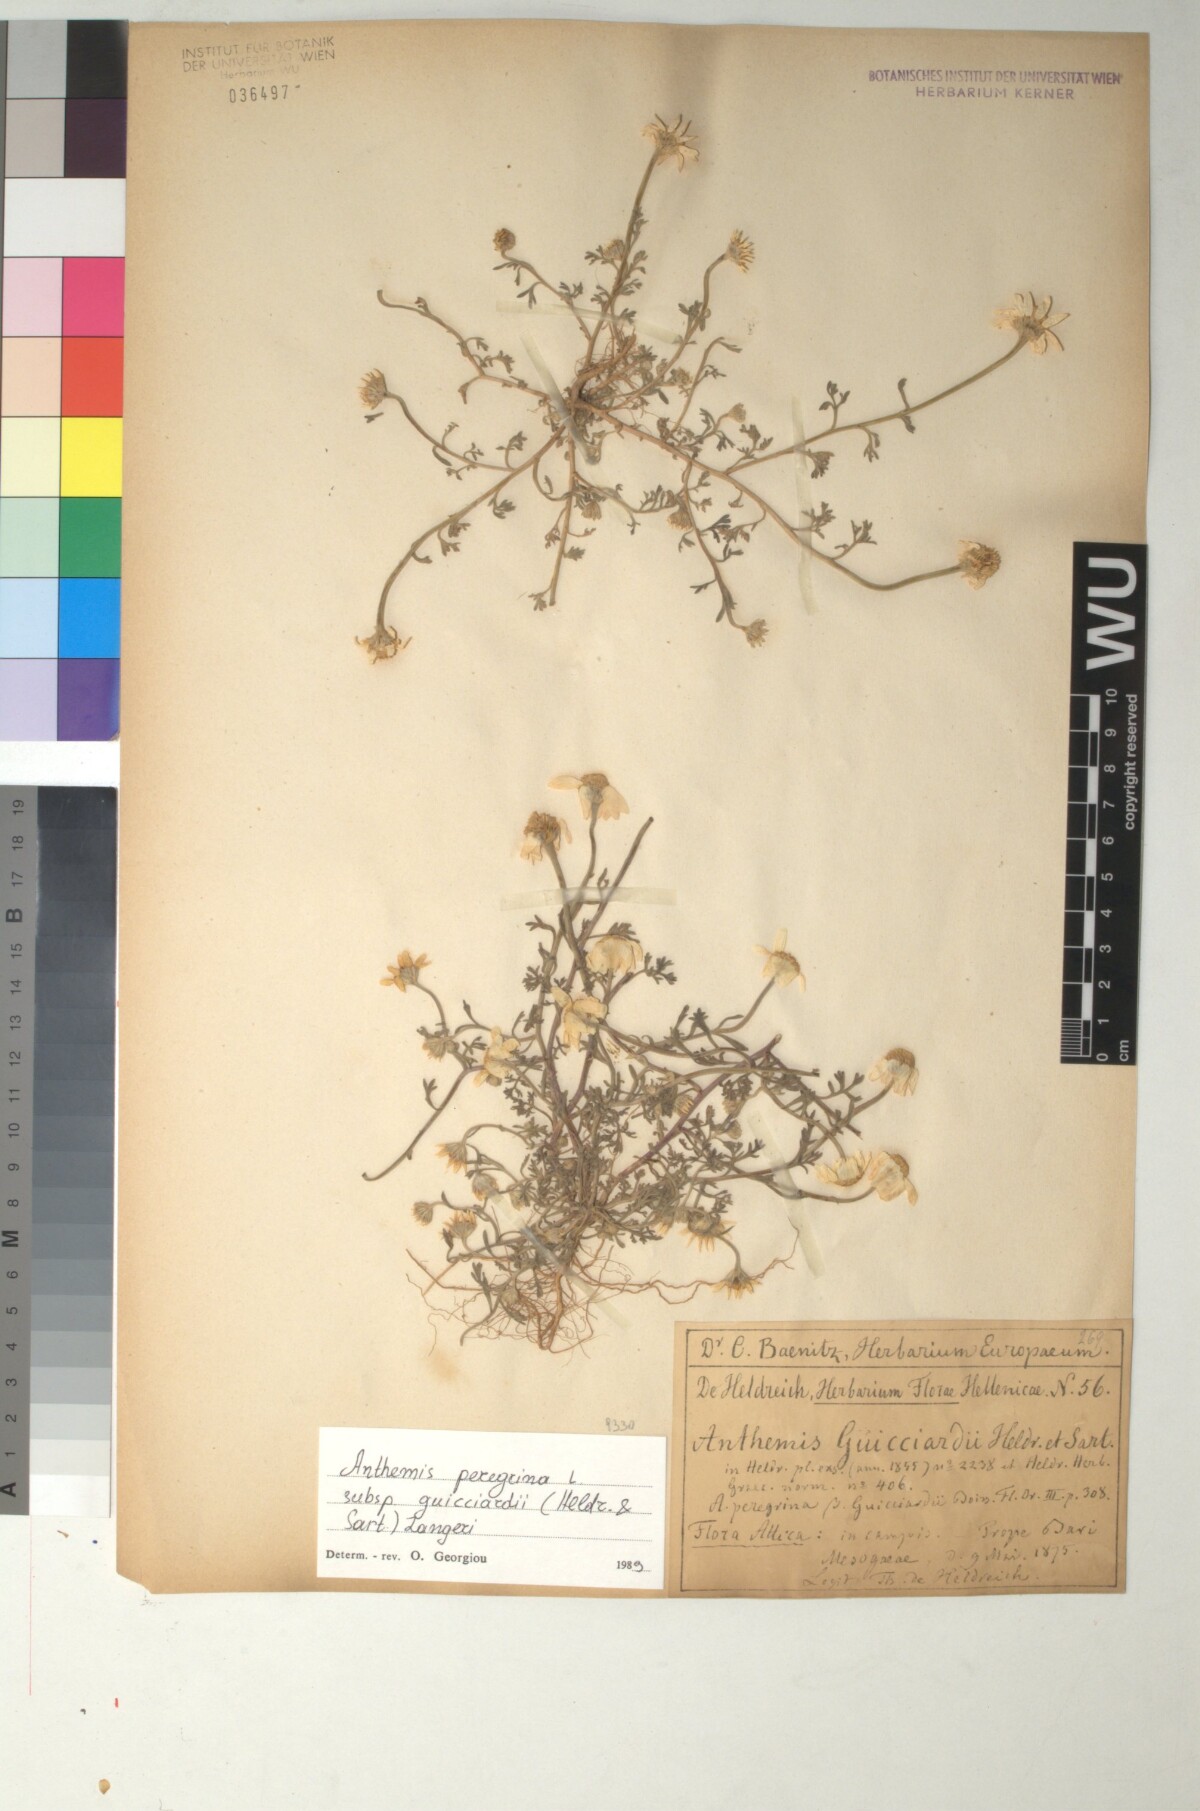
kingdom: Plantae
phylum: Tracheophyta
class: Magnoliopsida
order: Asterales
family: Asteraceae
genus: Anthemis
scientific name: Anthemis tomentosa
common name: Woolly chamomile
